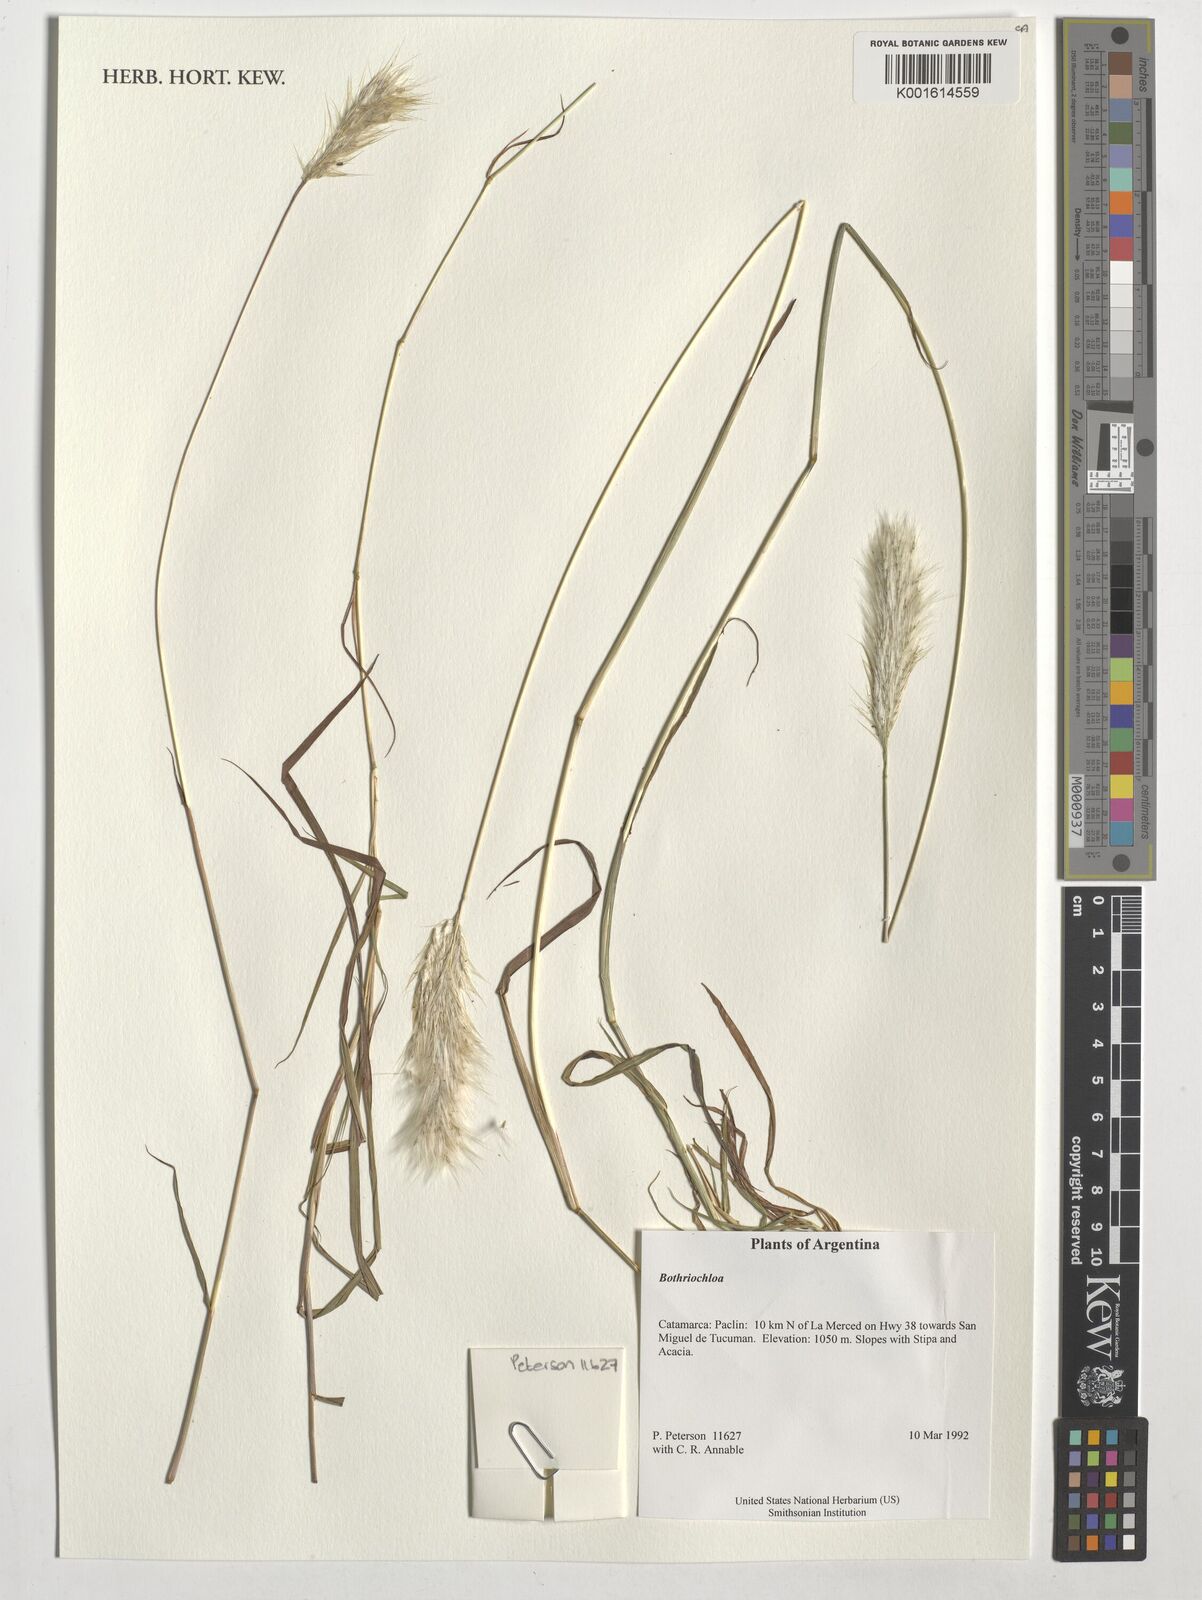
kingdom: Plantae
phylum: Tracheophyta
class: Liliopsida
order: Poales
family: Poaceae
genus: Bothriochloa
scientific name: Bothriochloa
